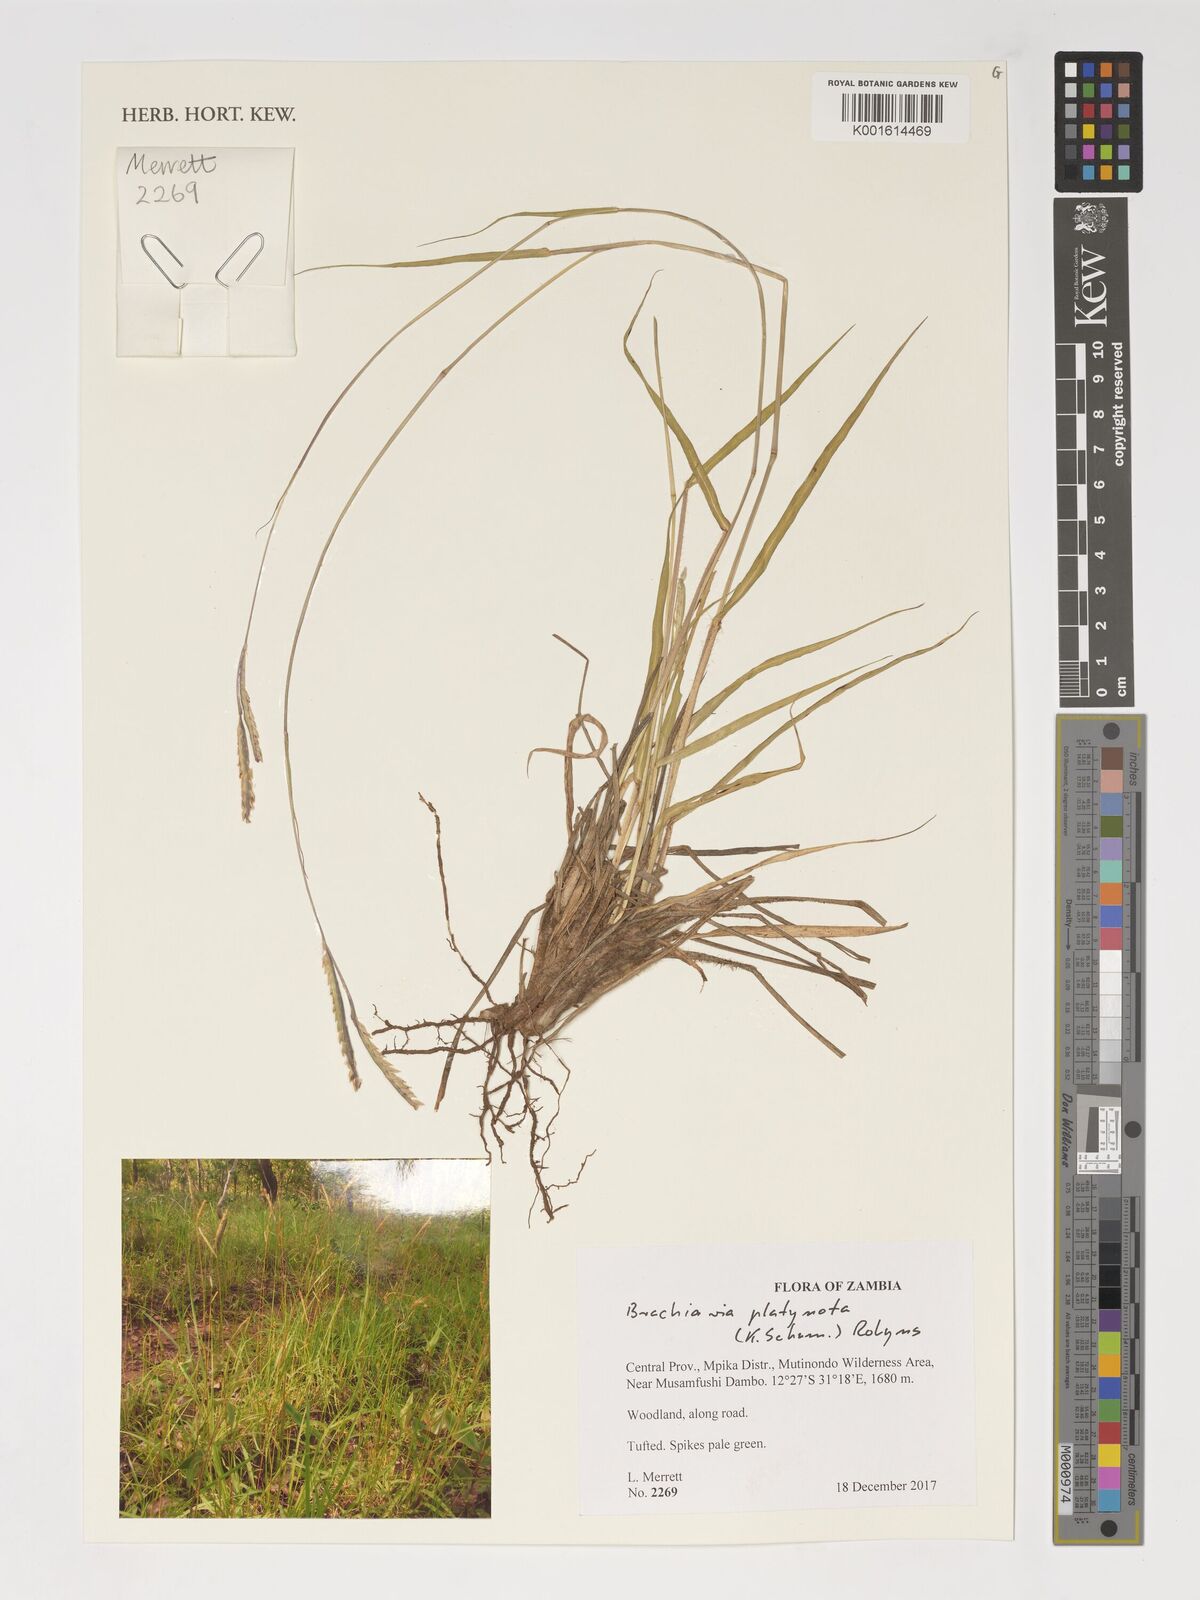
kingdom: Plantae
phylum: Tracheophyta
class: Liliopsida
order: Poales
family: Poaceae
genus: Urochloa
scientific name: Urochloa platynota
